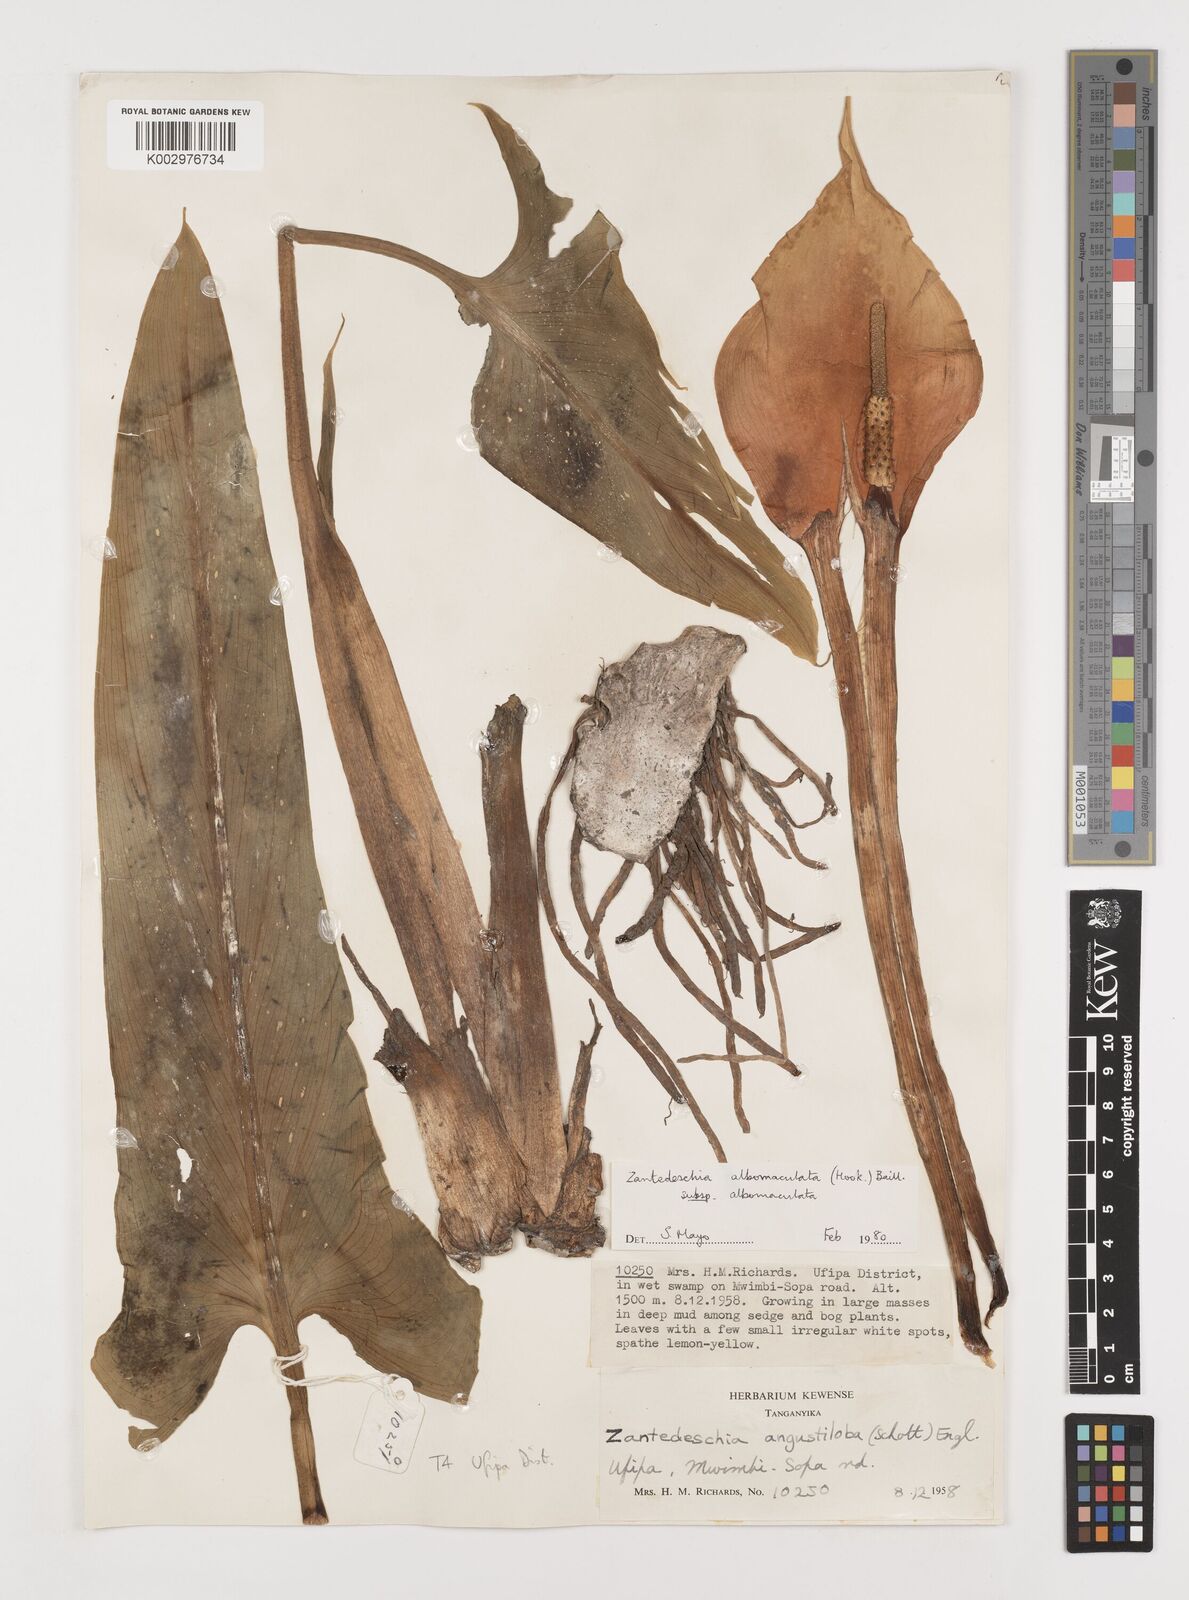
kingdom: Plantae
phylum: Tracheophyta
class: Liliopsida
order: Alismatales
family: Araceae
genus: Zantedeschia
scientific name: Zantedeschia albomaculata
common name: Spotted calla lily
